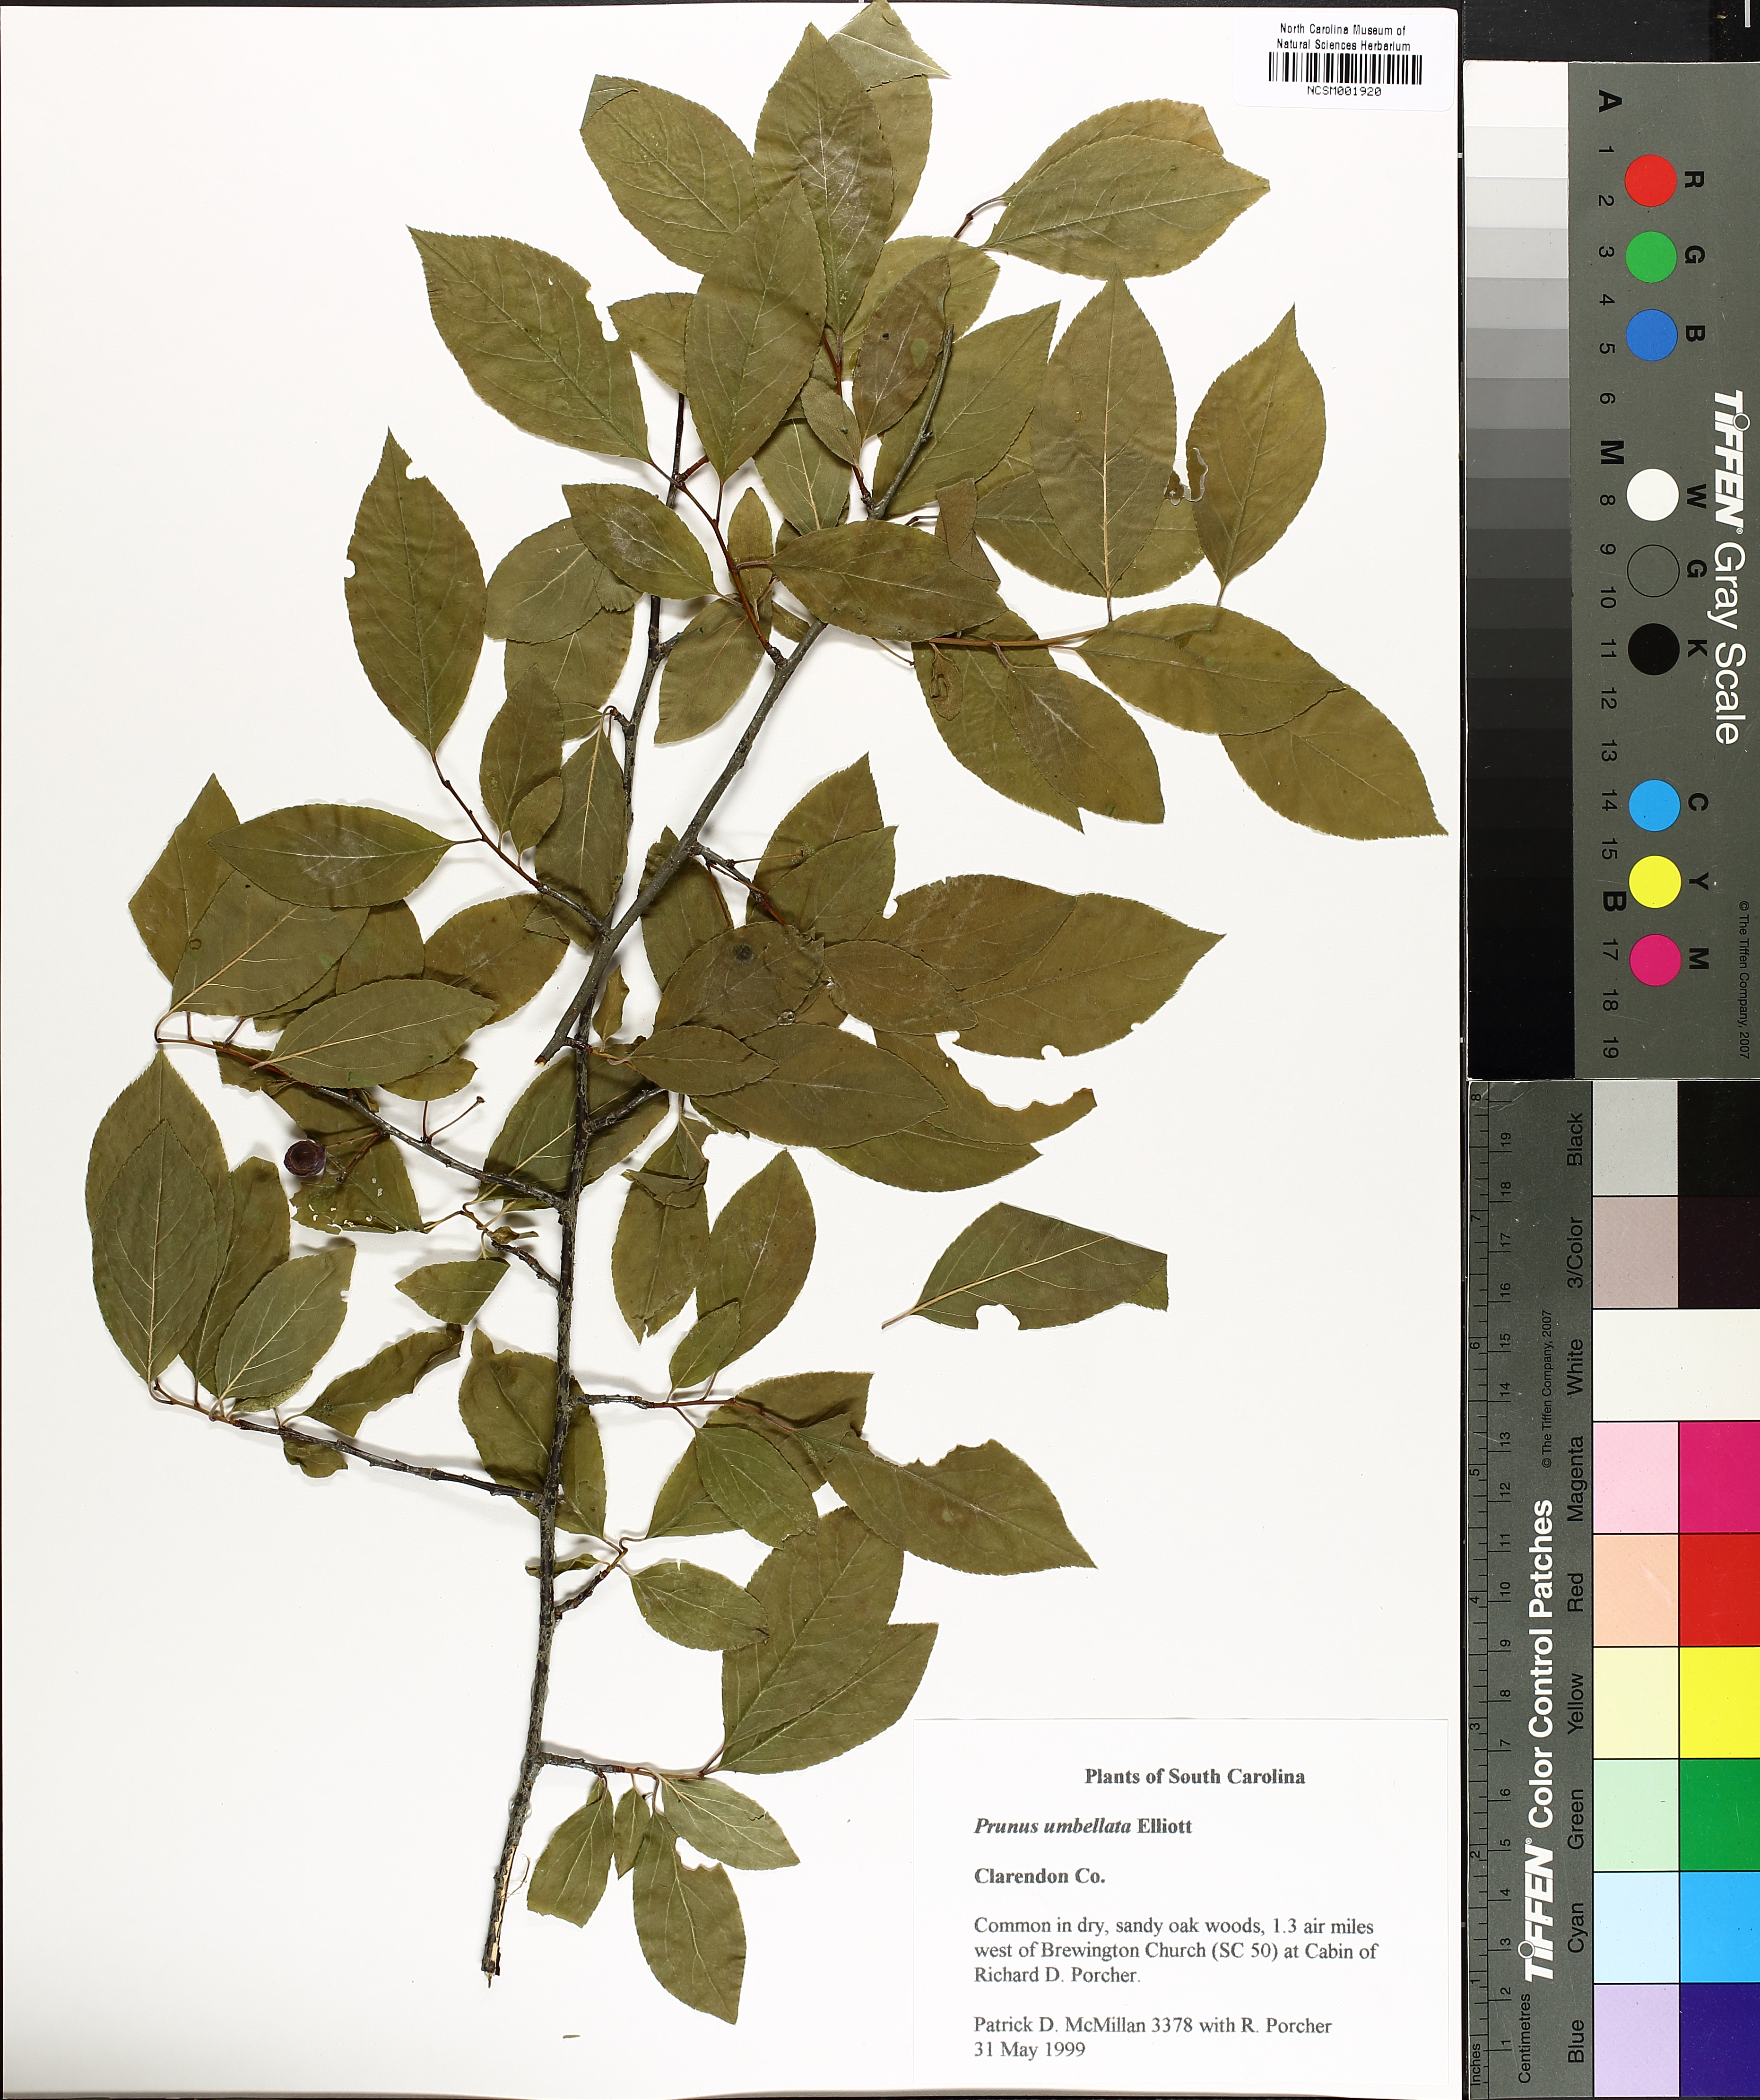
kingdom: Plantae
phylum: Tracheophyta
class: Magnoliopsida
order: Rosales
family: Rosaceae
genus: Prunus
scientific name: Prunus umbellata
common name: Allegheny plum
